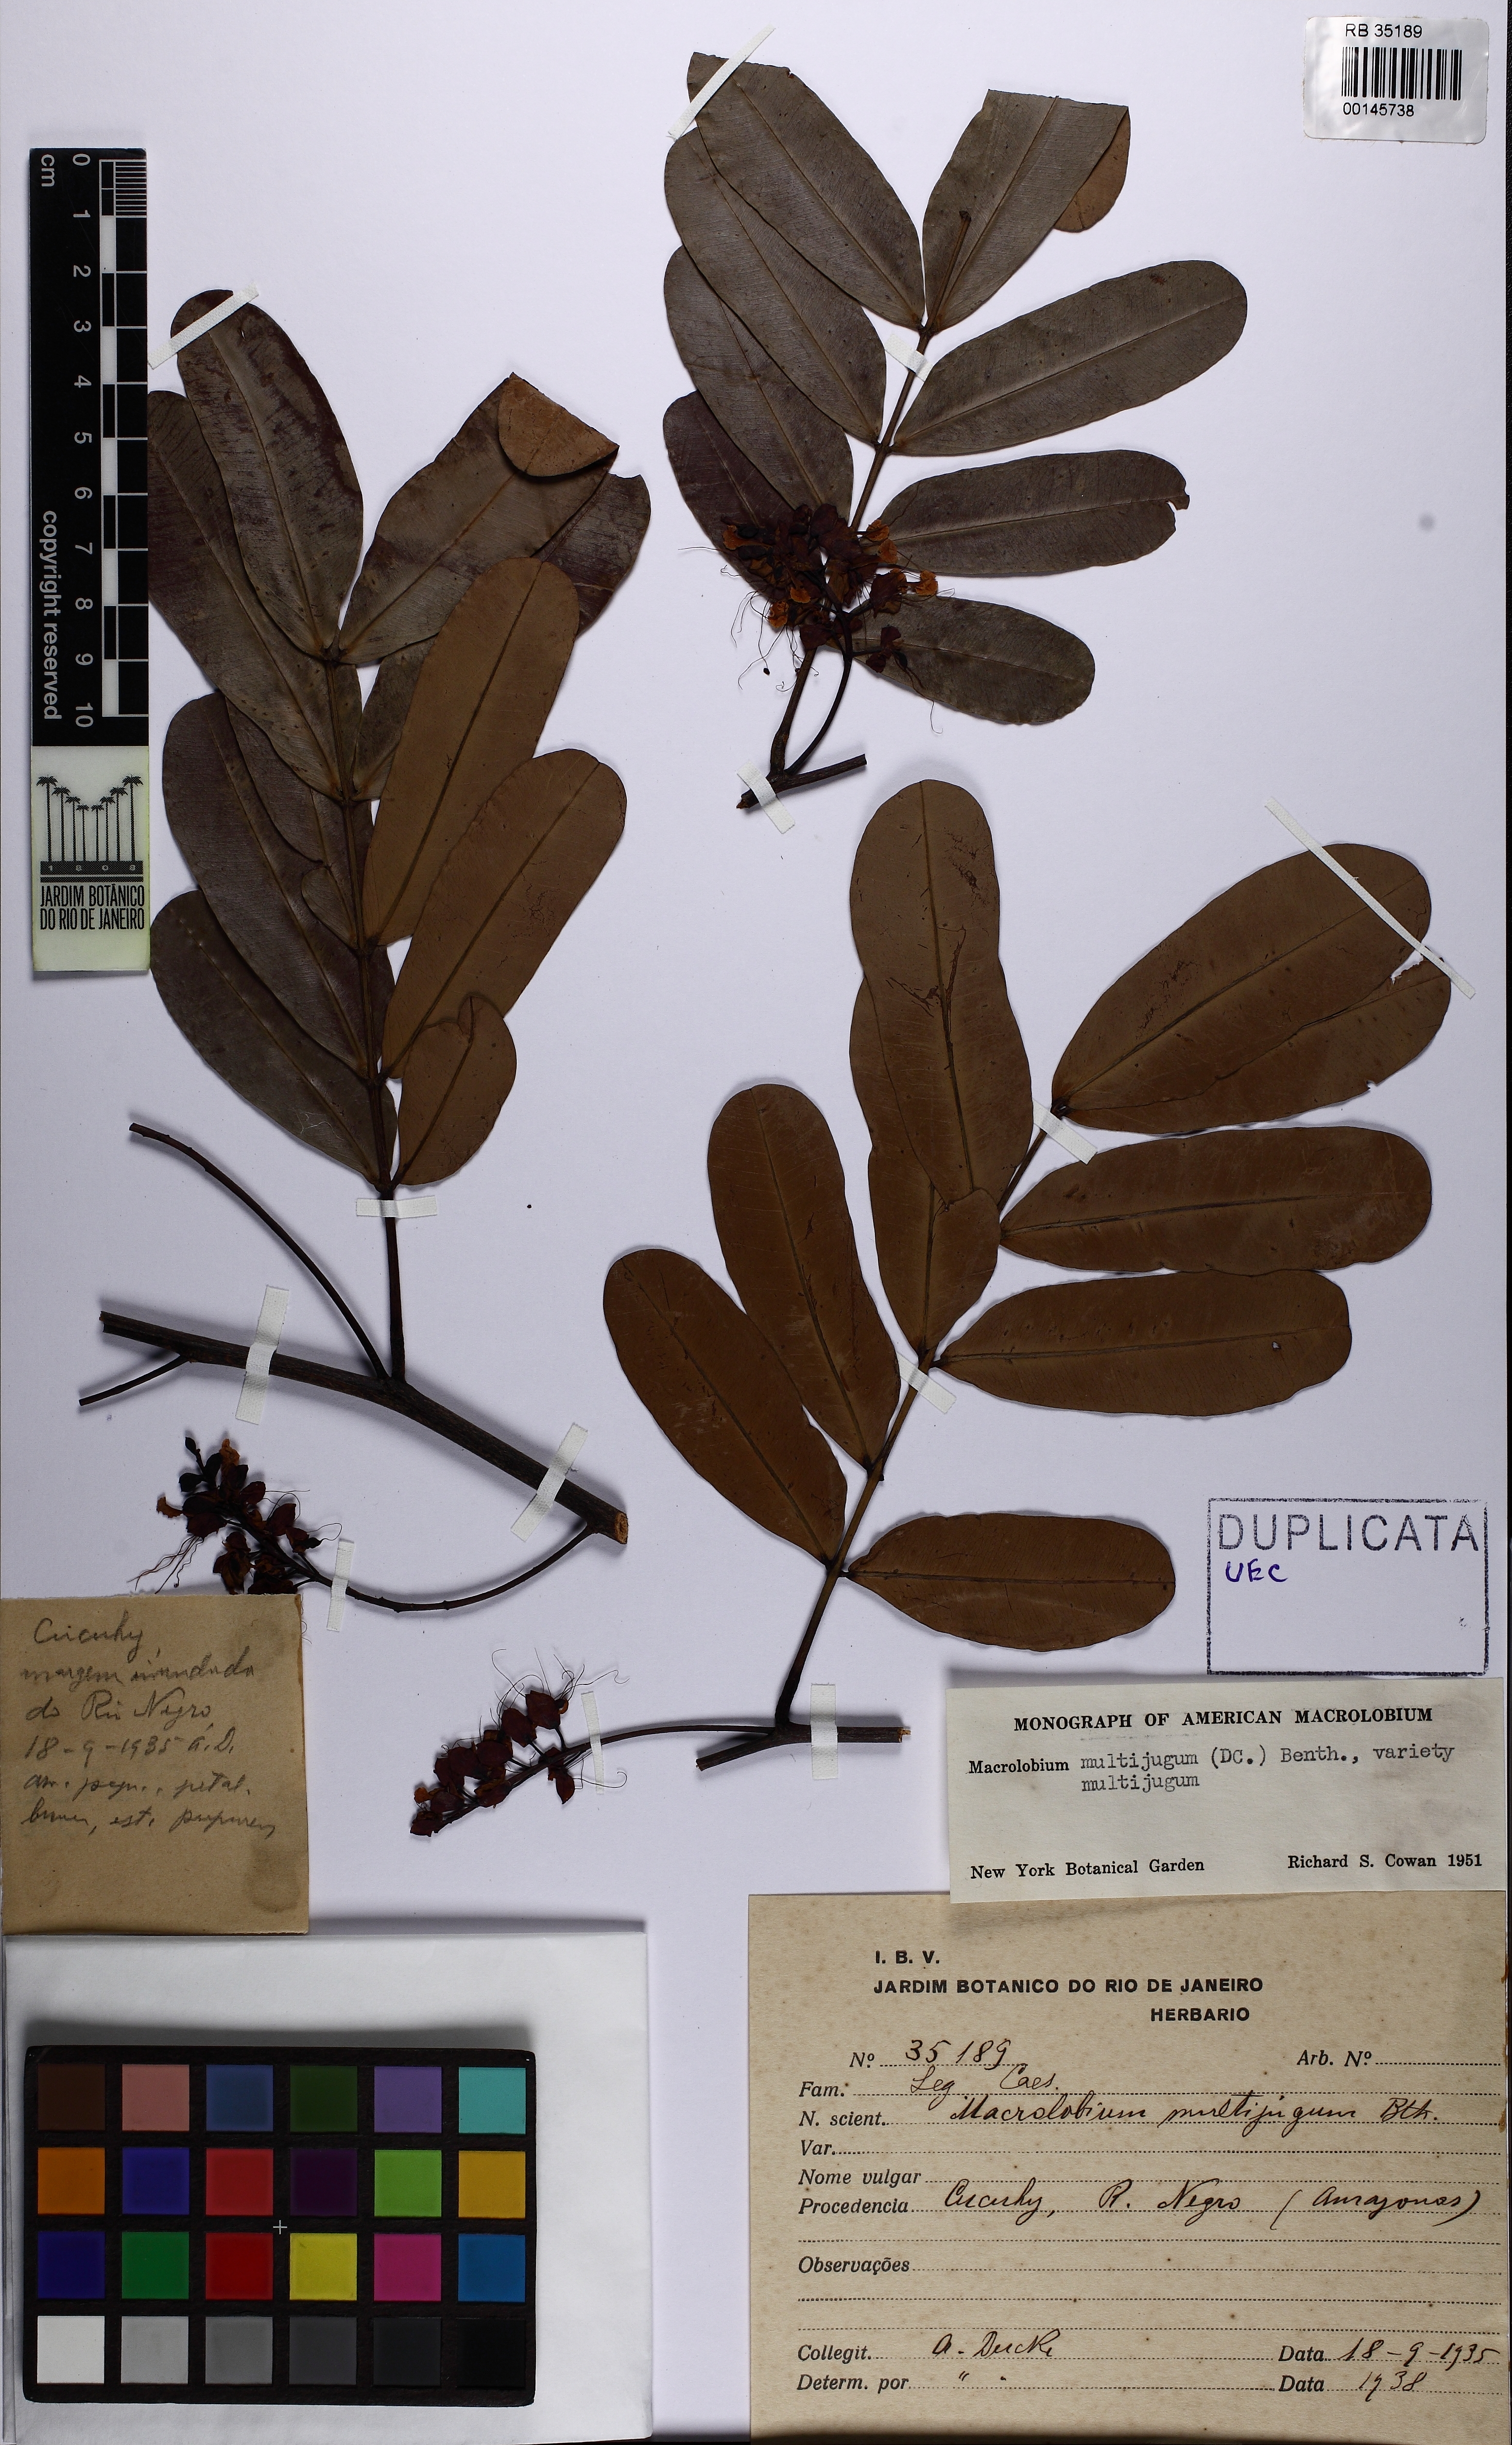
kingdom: Plantae
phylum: Tracheophyta
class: Magnoliopsida
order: Fabales
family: Fabaceae
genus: Macrolobium
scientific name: Macrolobium multijugum
